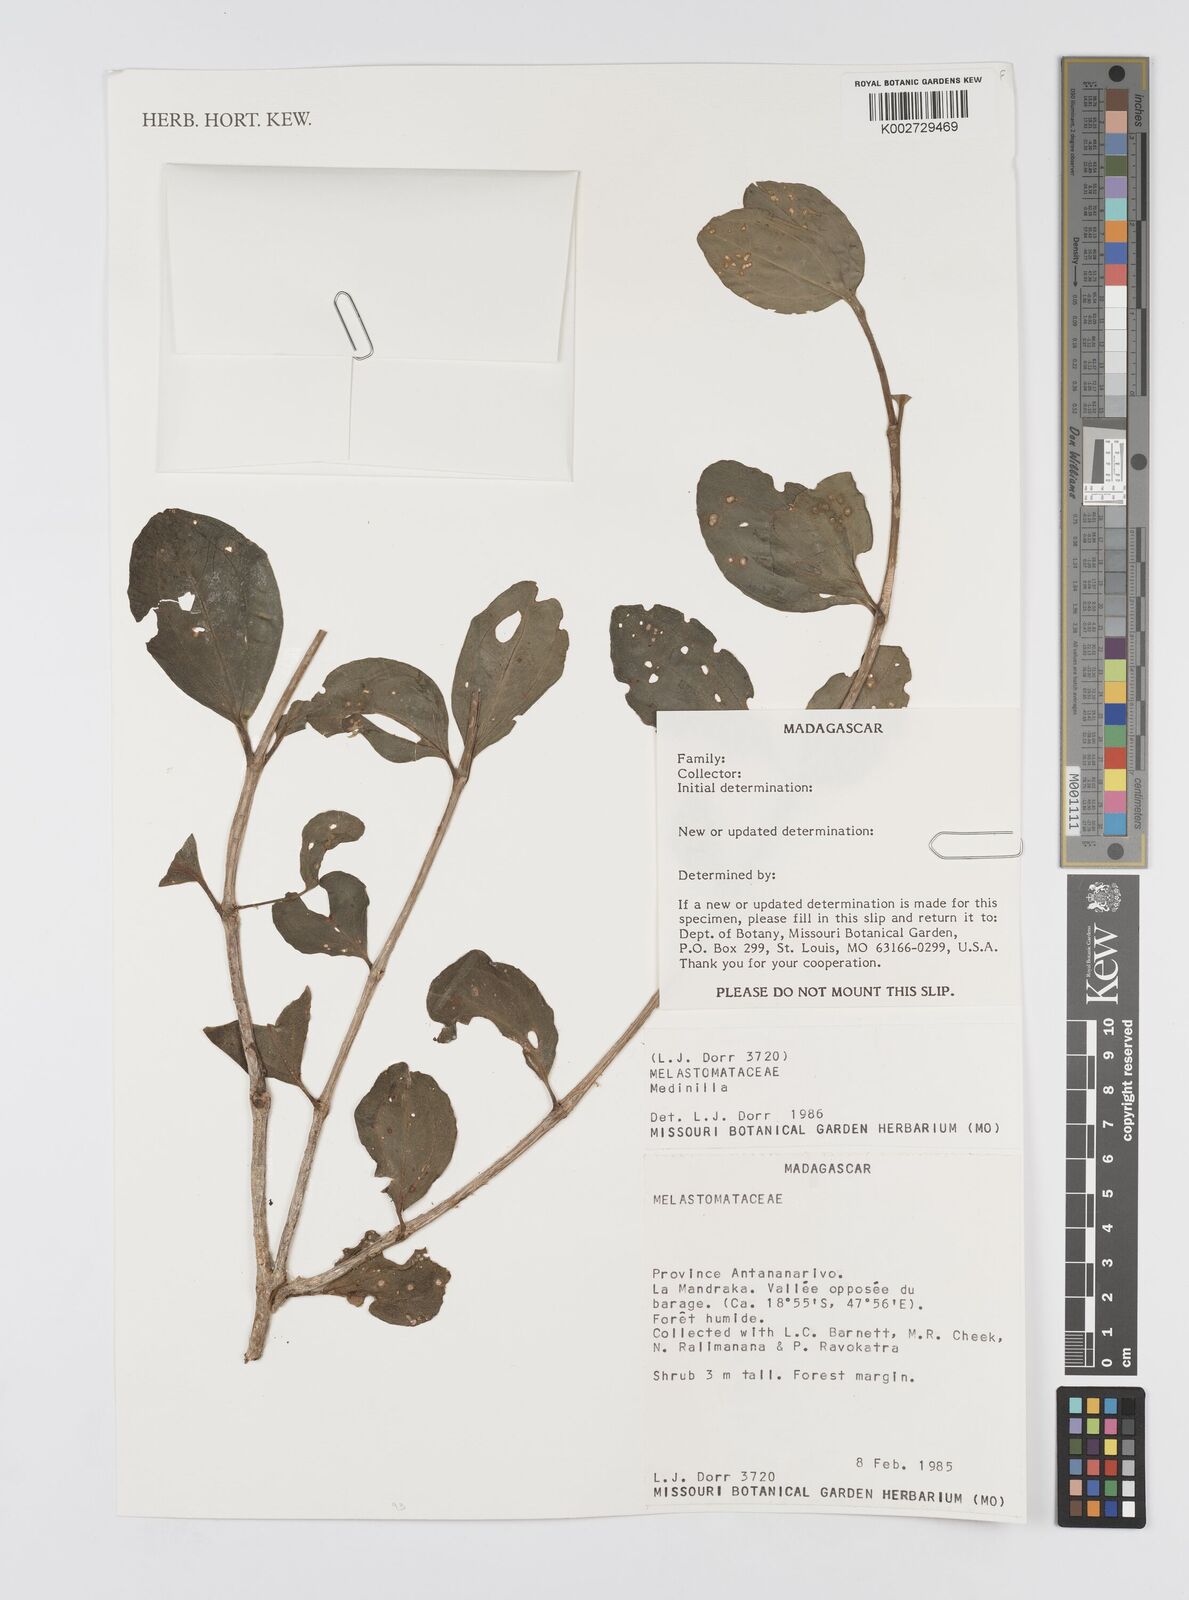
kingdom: Plantae
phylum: Tracheophyta
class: Magnoliopsida
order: Myrtales
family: Melastomataceae
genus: Medinilla
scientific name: Medinilla
